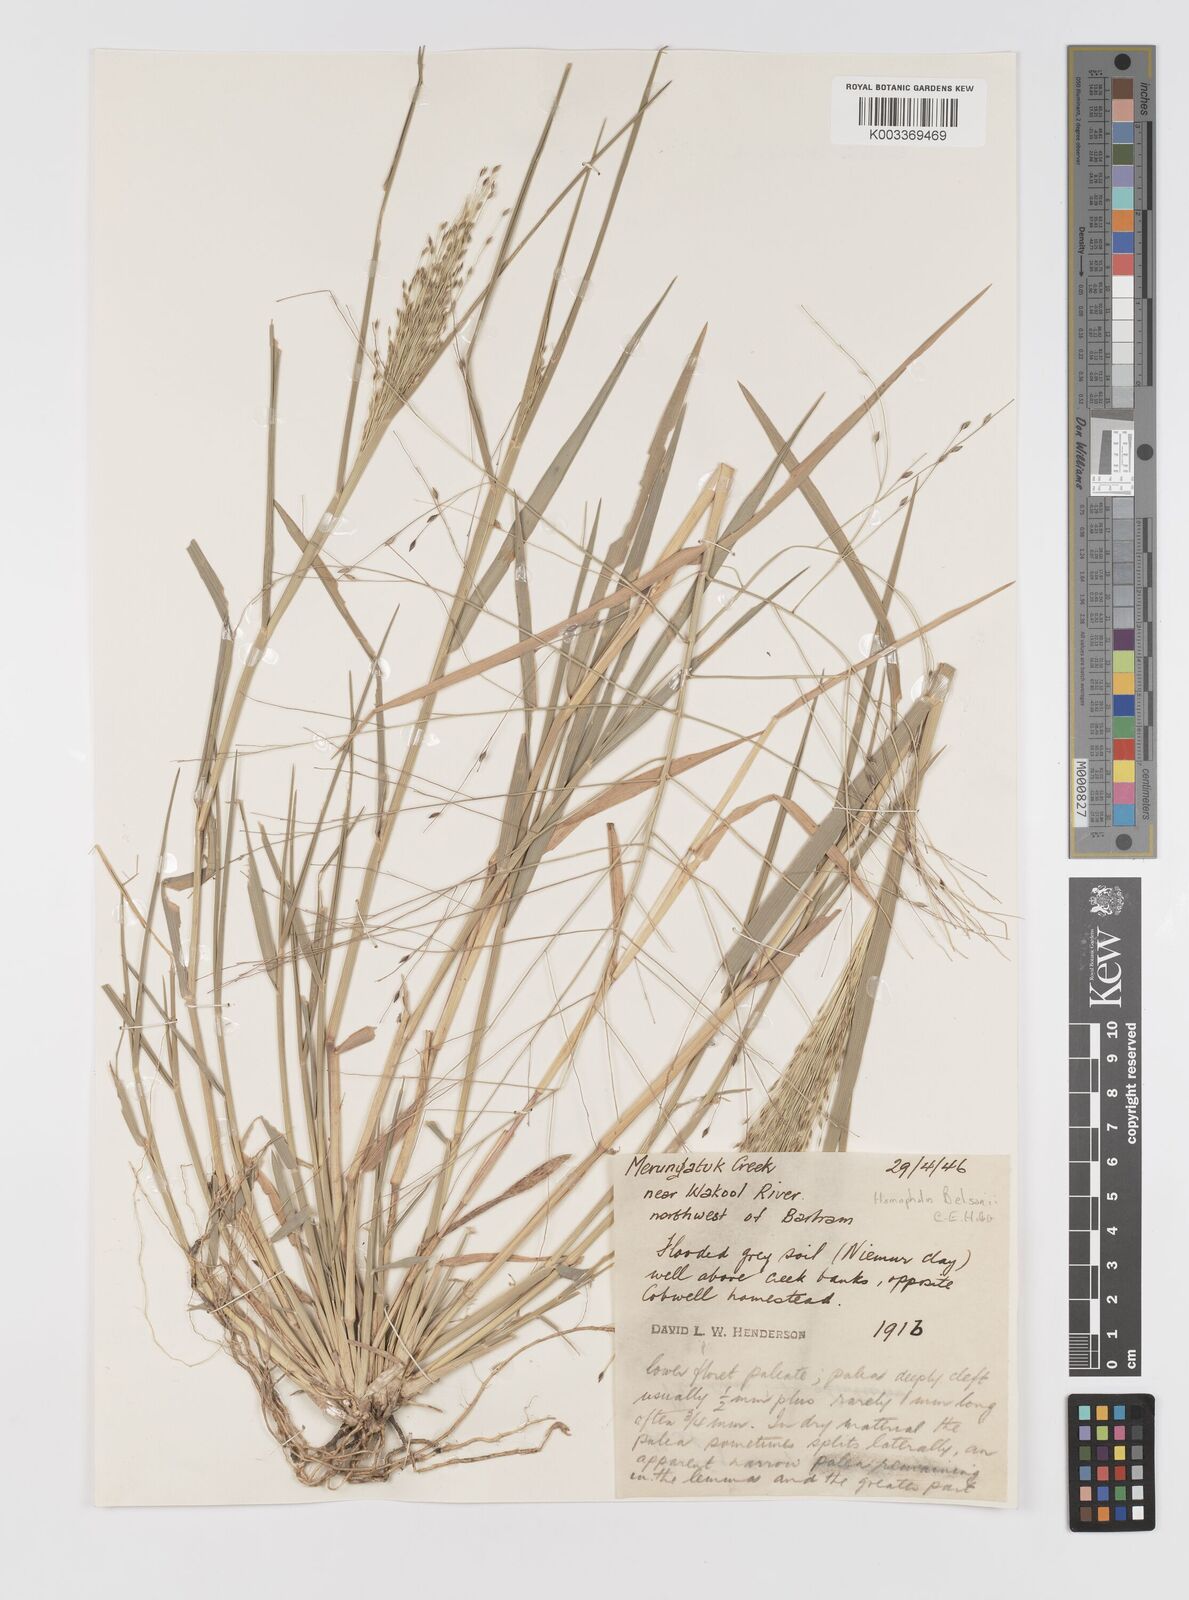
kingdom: Plantae
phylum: Tracheophyta
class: Liliopsida
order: Poales
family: Poaceae
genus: Walwhalleya
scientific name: Walwhalleya proluta
